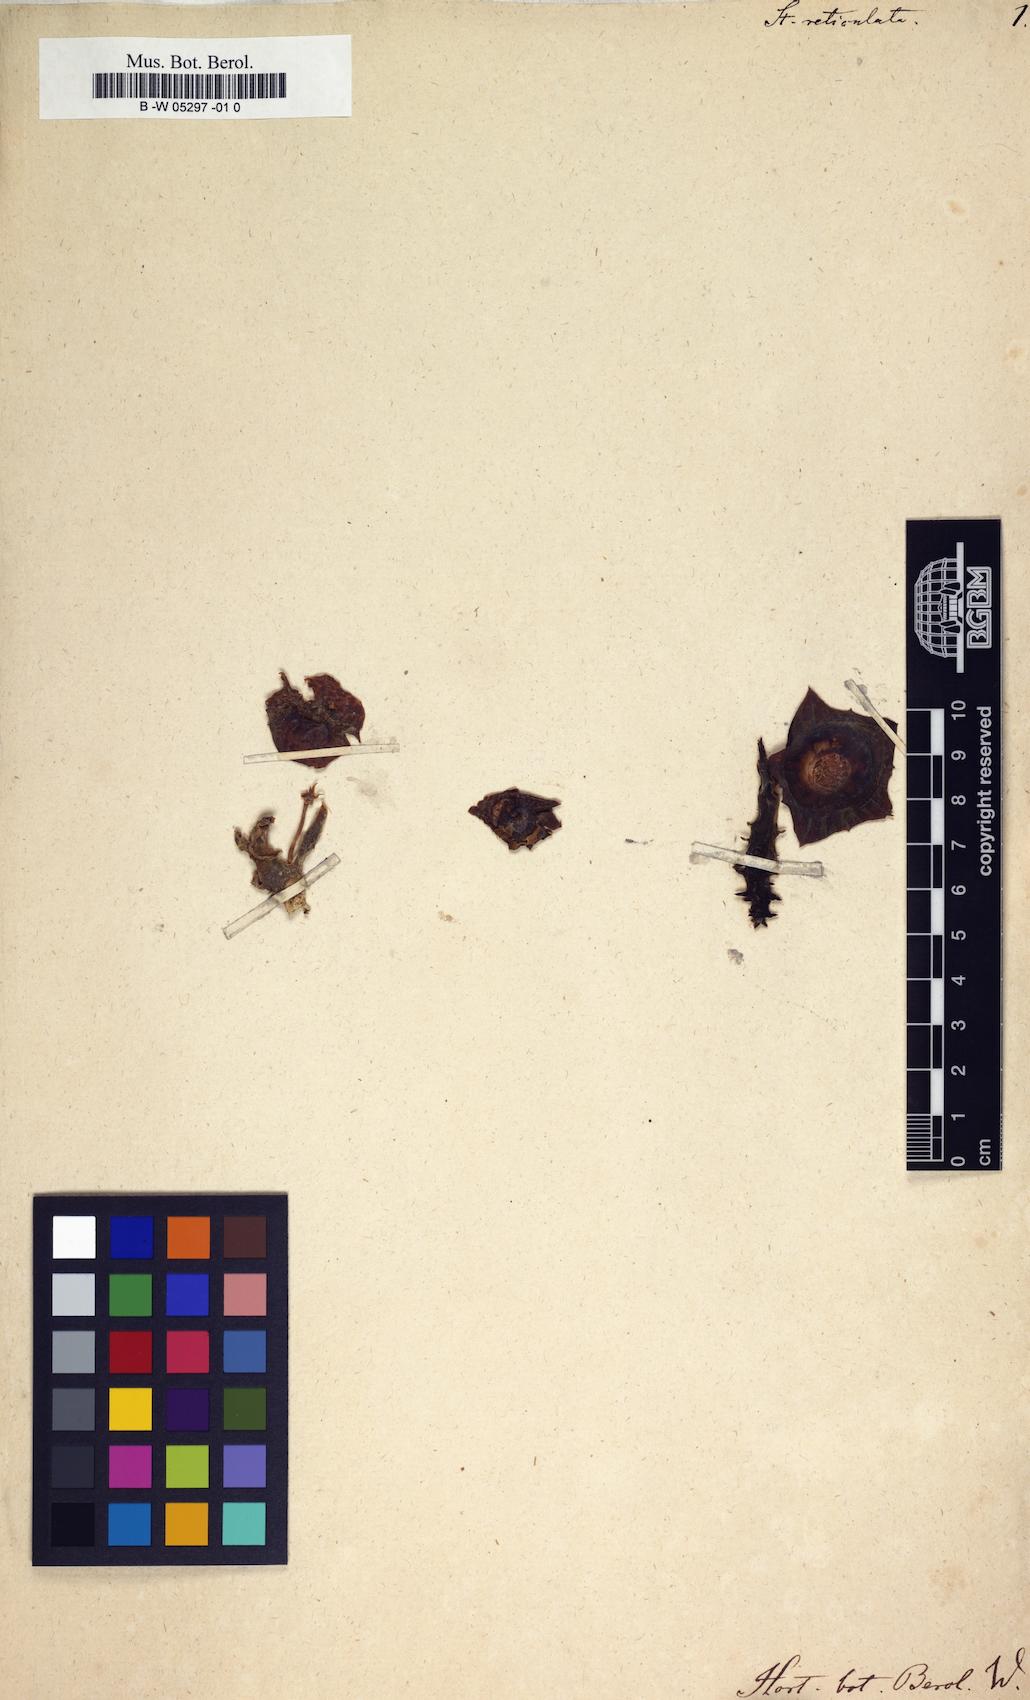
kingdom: Plantae
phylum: Tracheophyta
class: Magnoliopsida
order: Gentianales
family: Apocynaceae
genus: Ceropegia
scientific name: Ceropegia guttata
